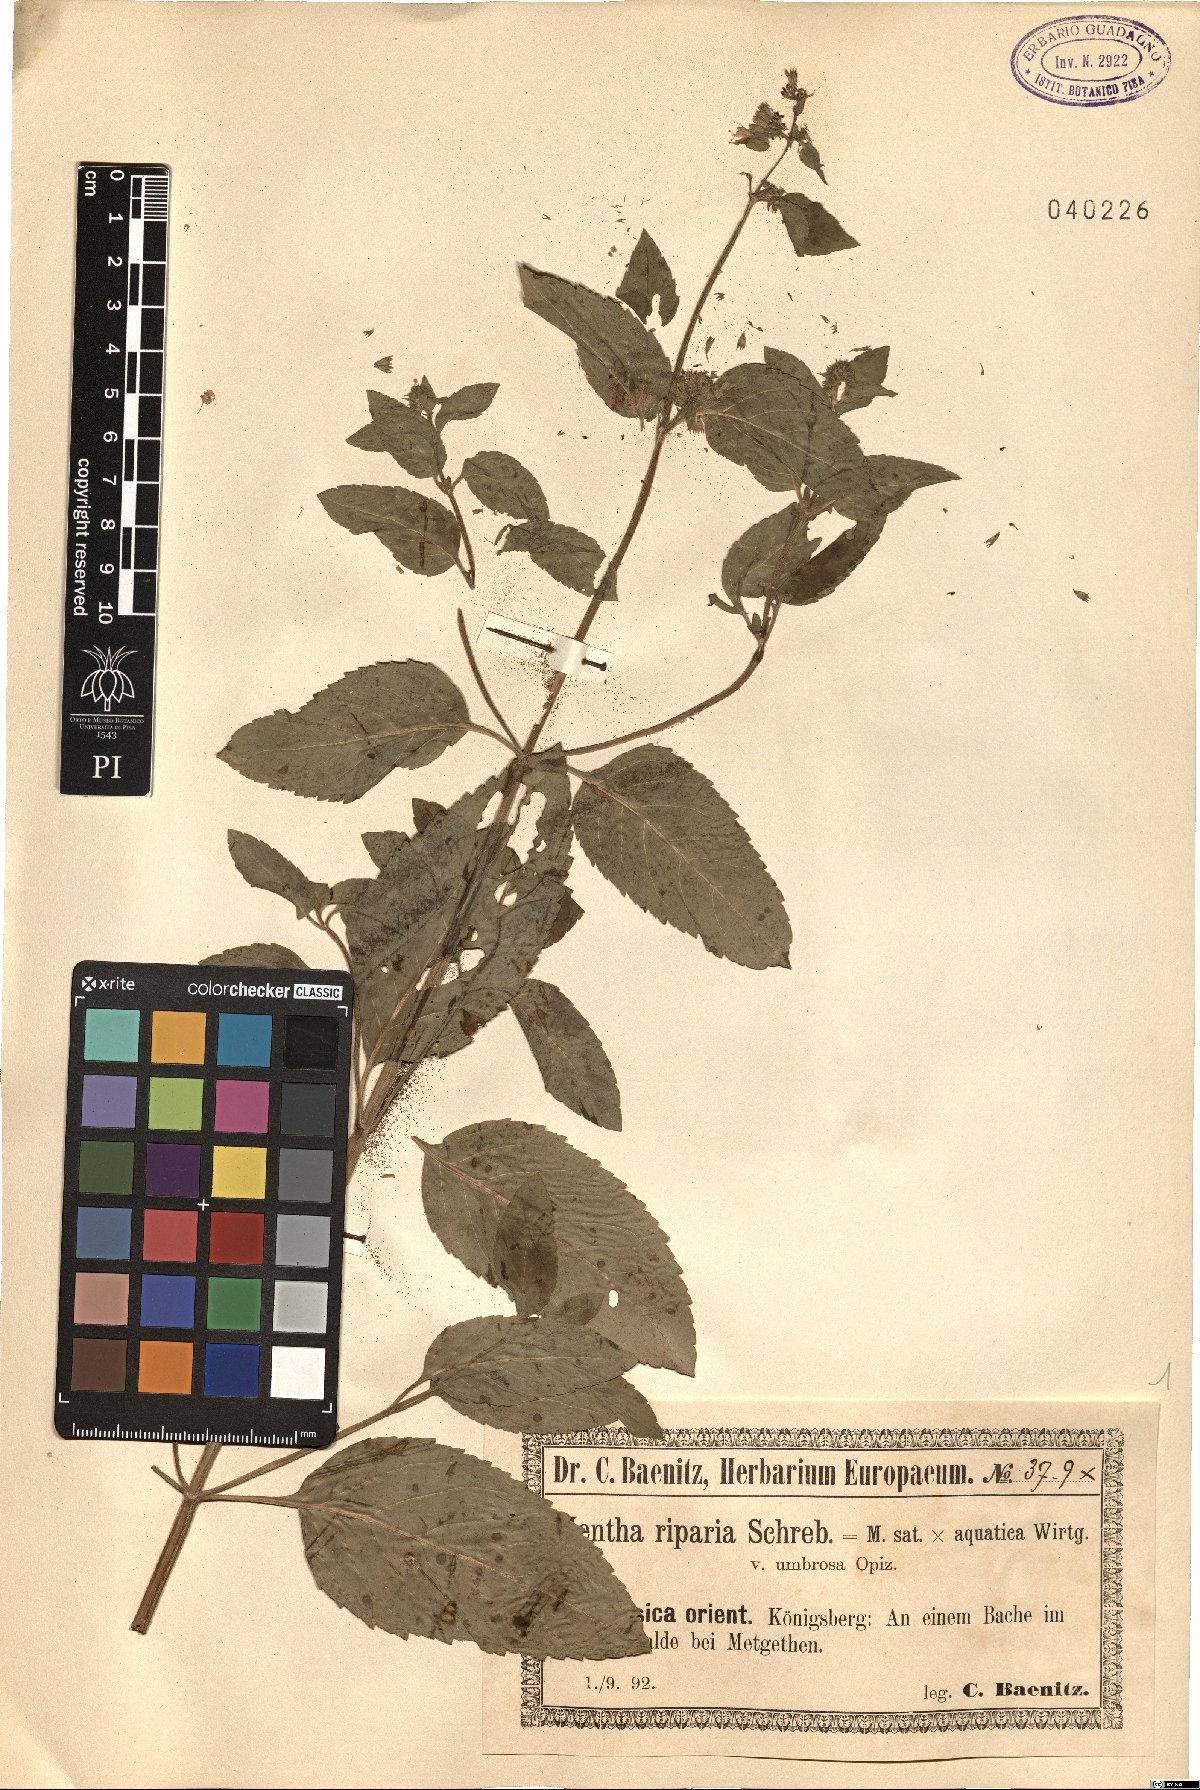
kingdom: Plantae
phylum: Tracheophyta
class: Magnoliopsida
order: Lamiales
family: Lamiaceae
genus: Mentha
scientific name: Mentha aquatica
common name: Water mint
